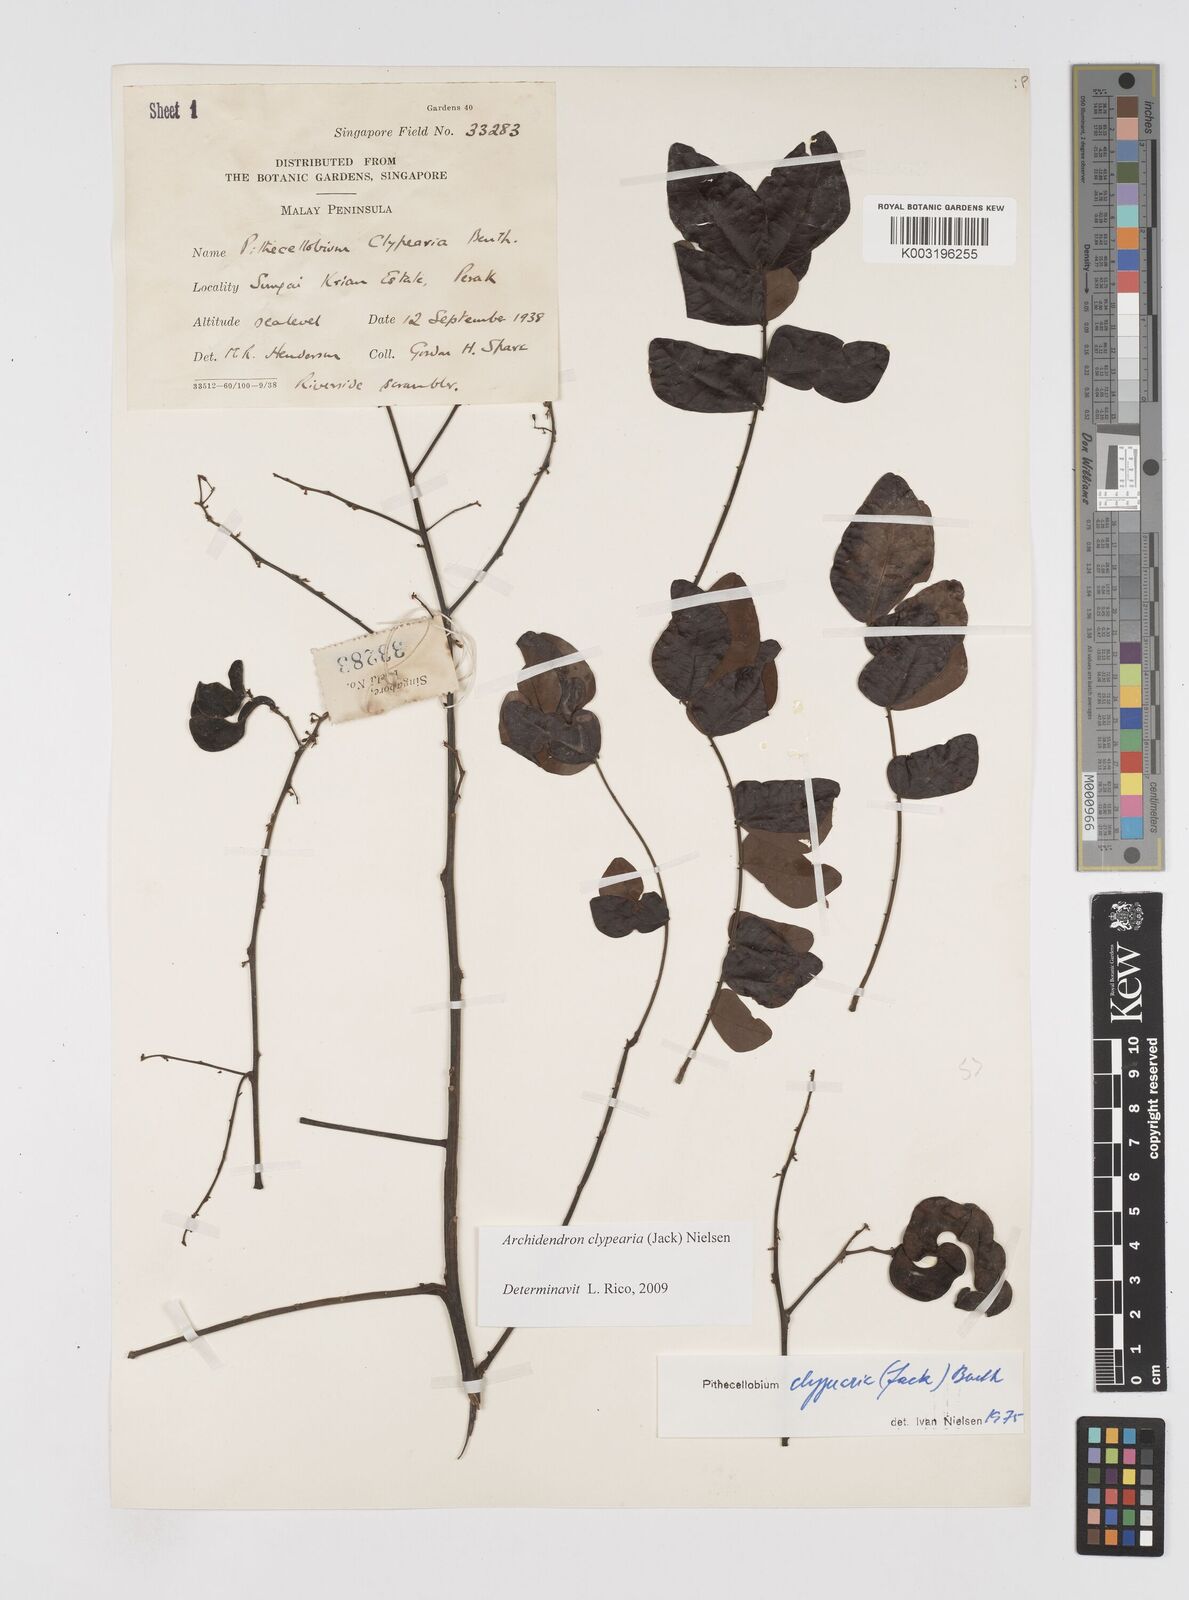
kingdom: Plantae
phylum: Tracheophyta
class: Magnoliopsida
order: Fabales
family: Fabaceae
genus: Archidendron
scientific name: Archidendron clypearia
